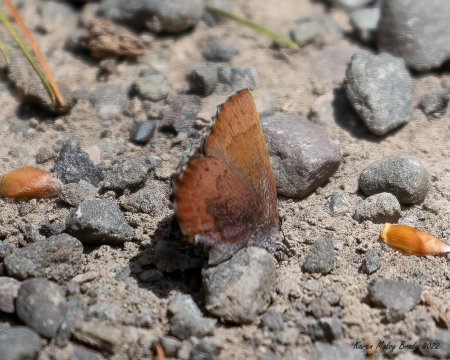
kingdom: Animalia
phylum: Arthropoda
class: Insecta
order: Lepidoptera
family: Lycaenidae
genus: Incisalia
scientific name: Incisalia irioides
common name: Brown Elfin
